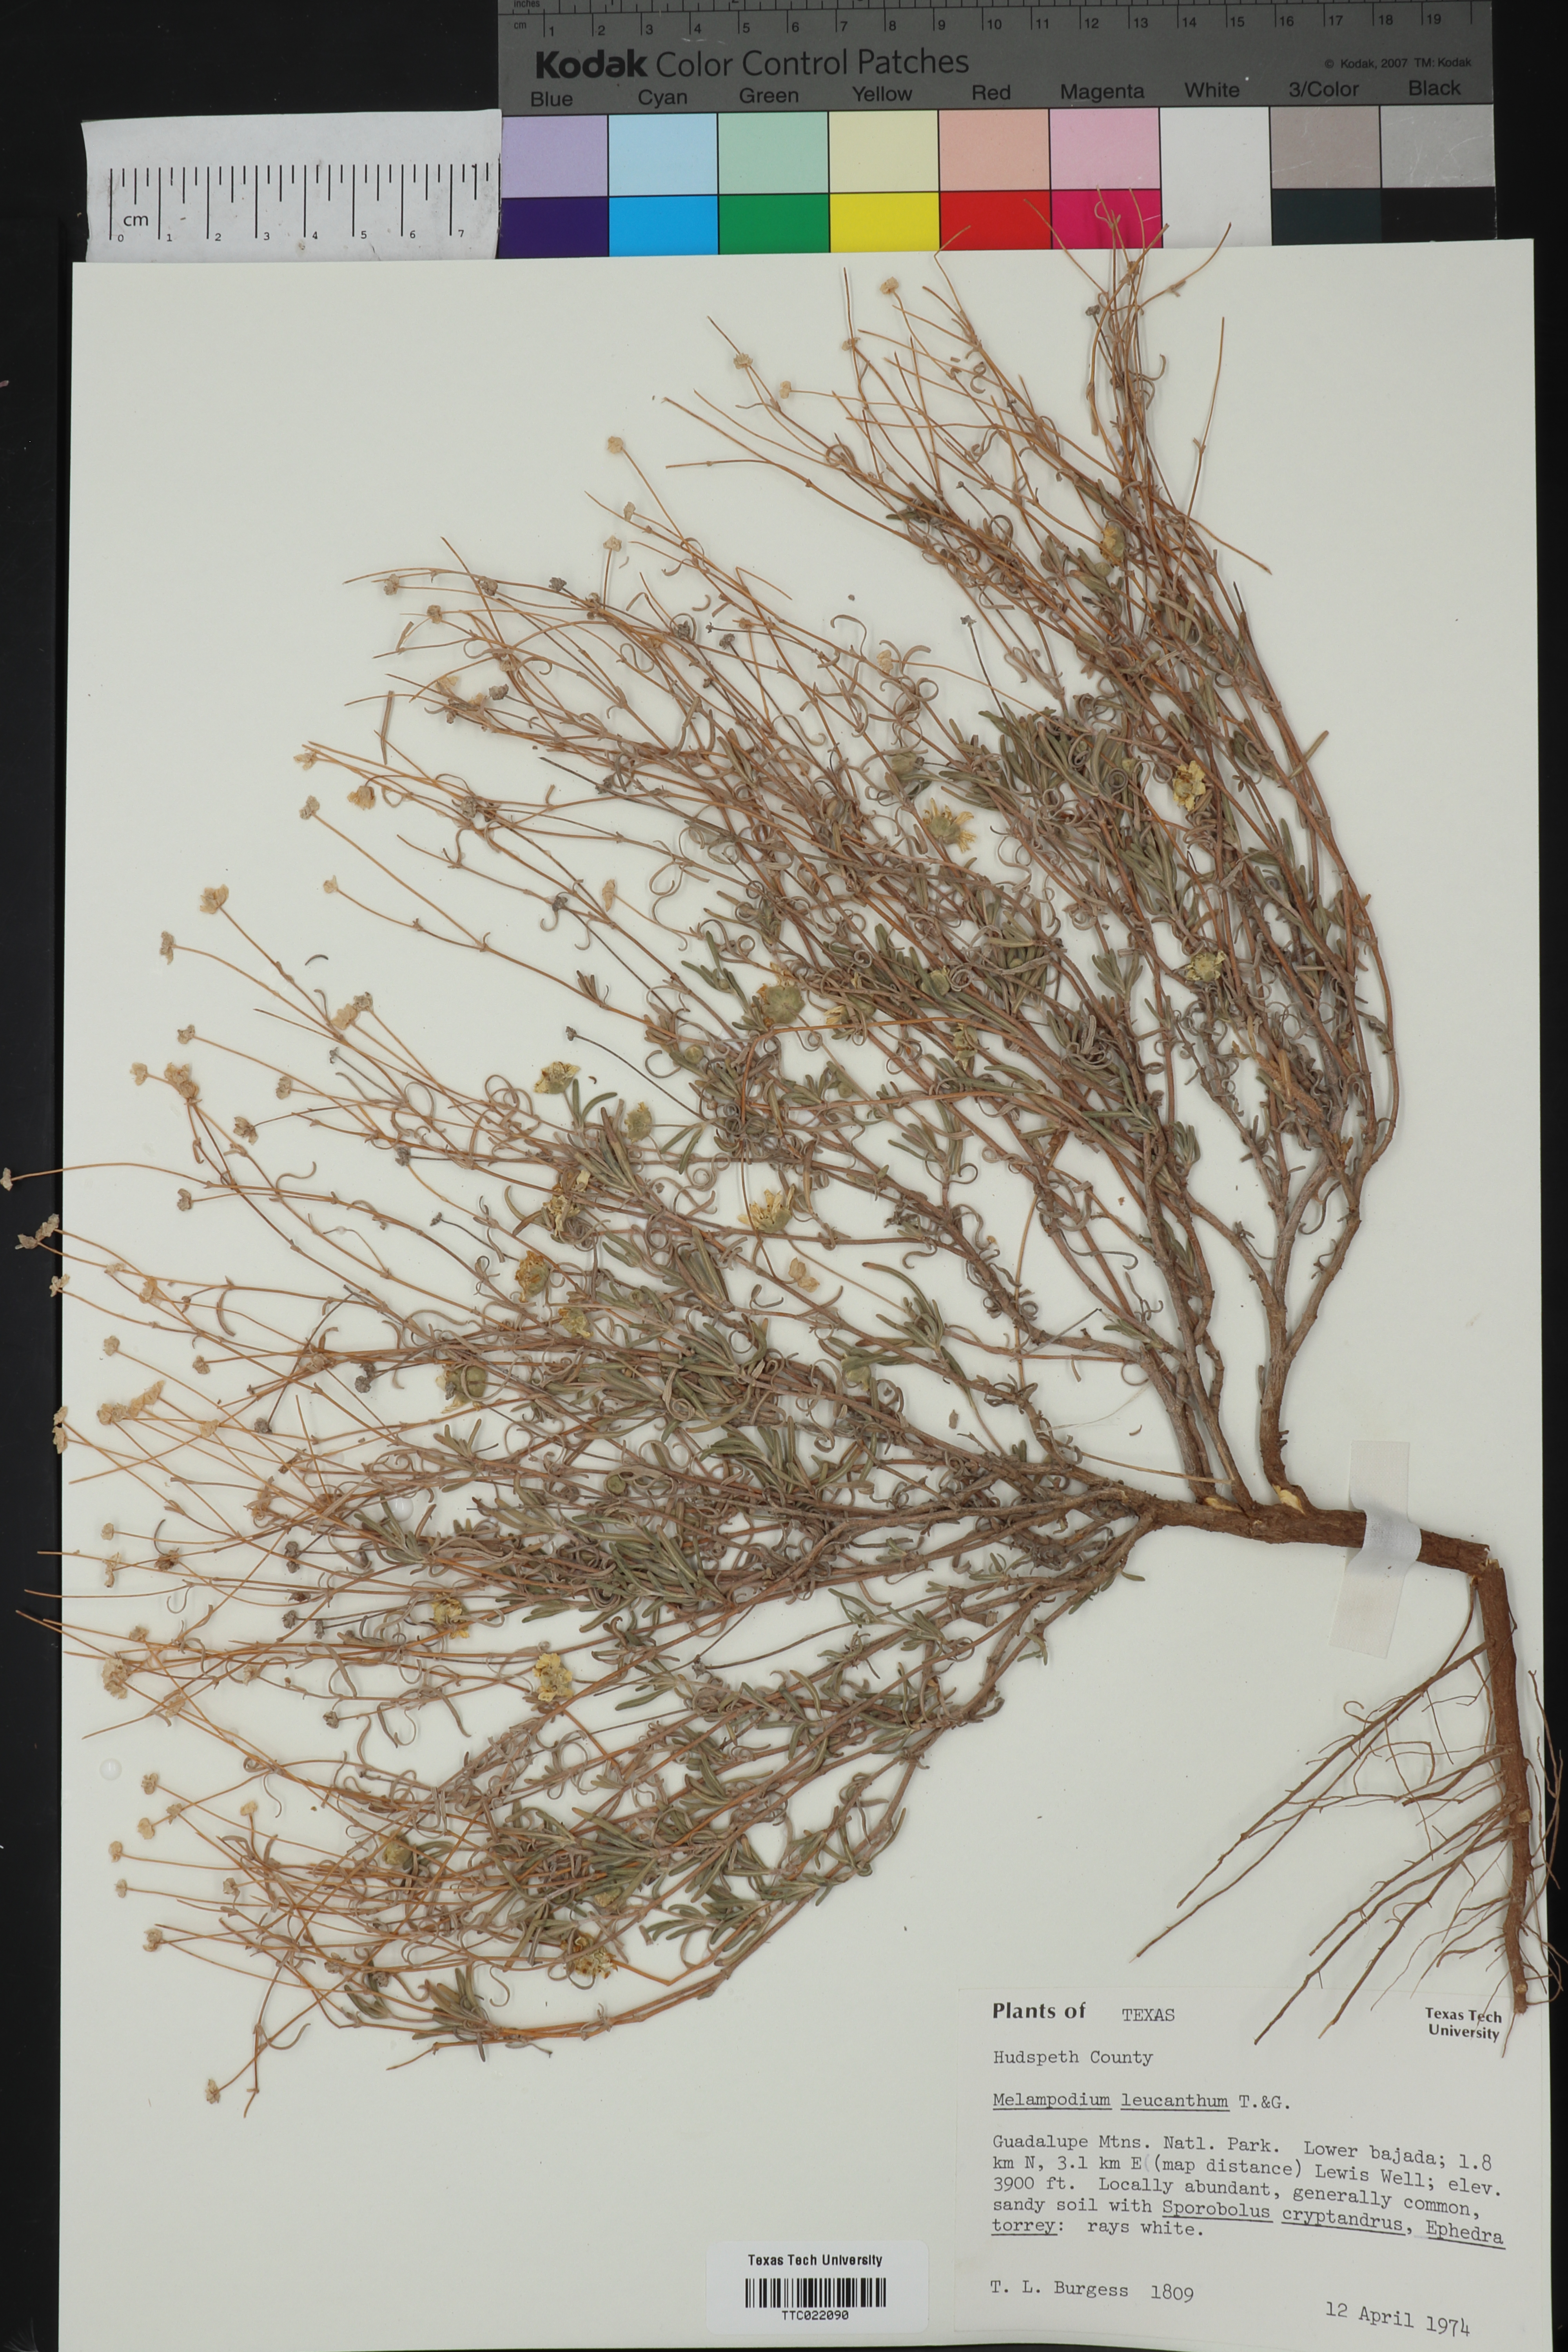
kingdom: Plantae
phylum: Tracheophyta
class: Magnoliopsida
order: Asterales
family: Asteraceae
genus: Melampodium
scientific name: Melampodium leucanthum
